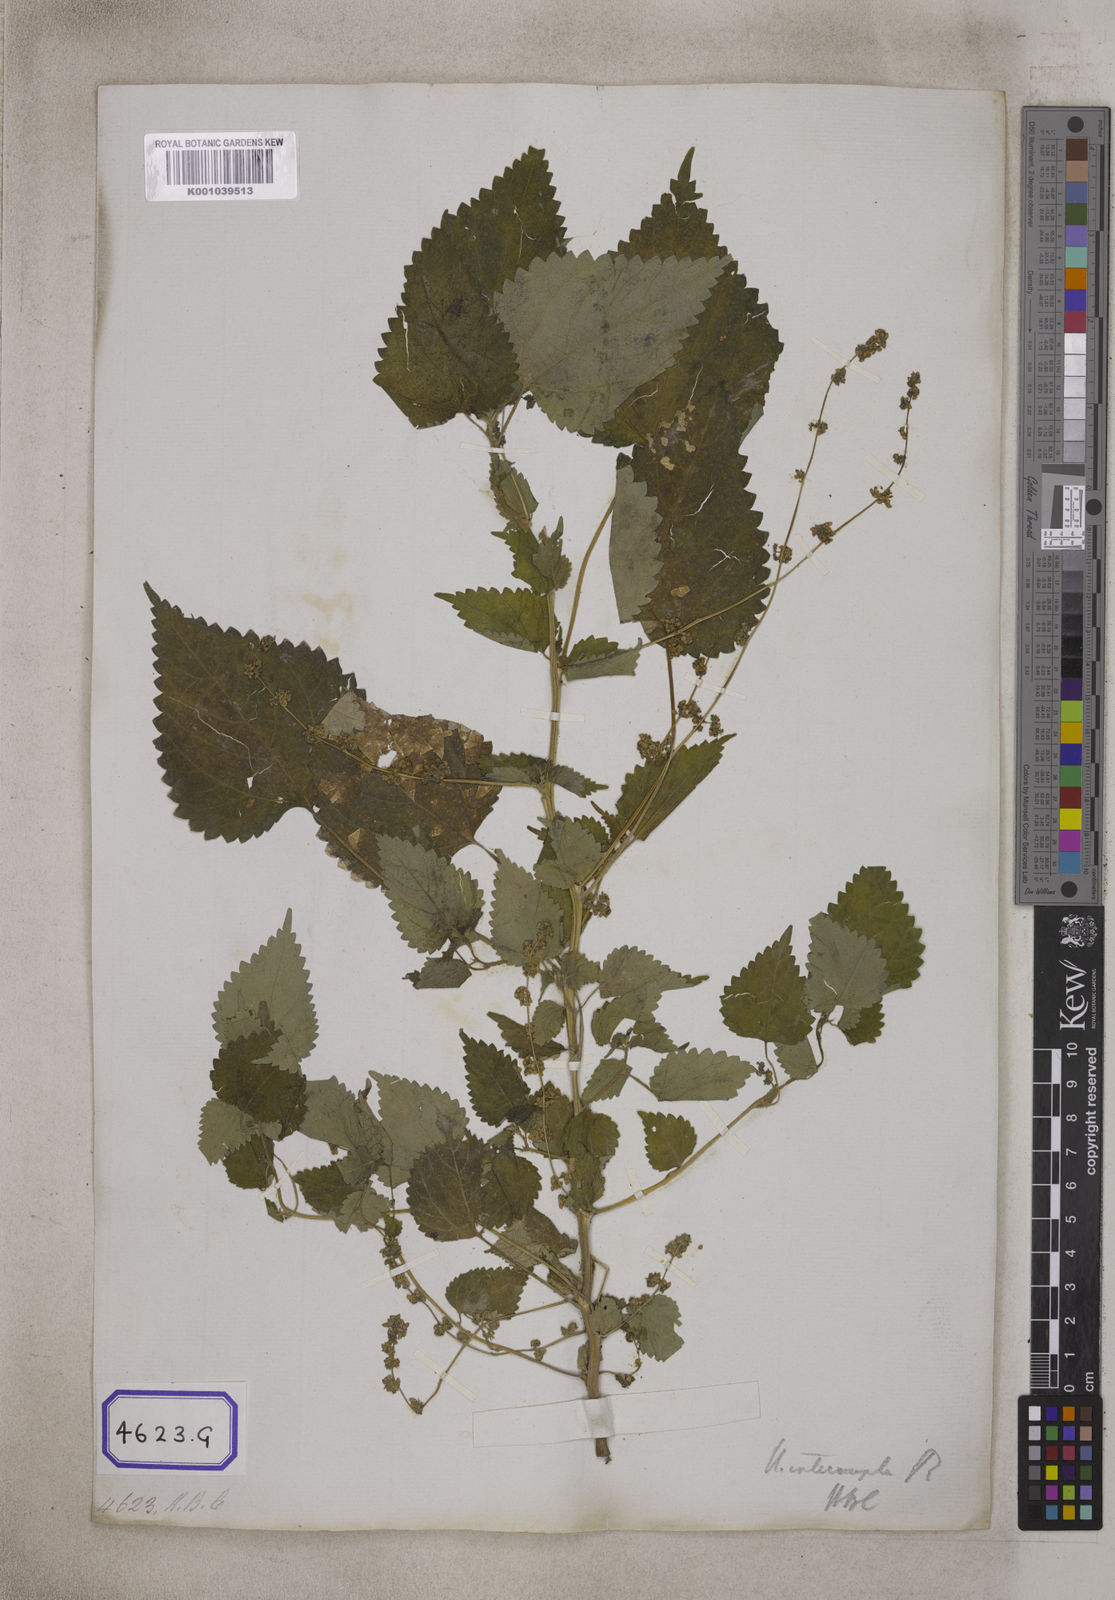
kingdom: Plantae
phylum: Tracheophyta
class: Magnoliopsida
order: Rosales
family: Urticaceae
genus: Laportea
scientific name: Laportea interrupta
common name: Hawaiian wood-nettle
